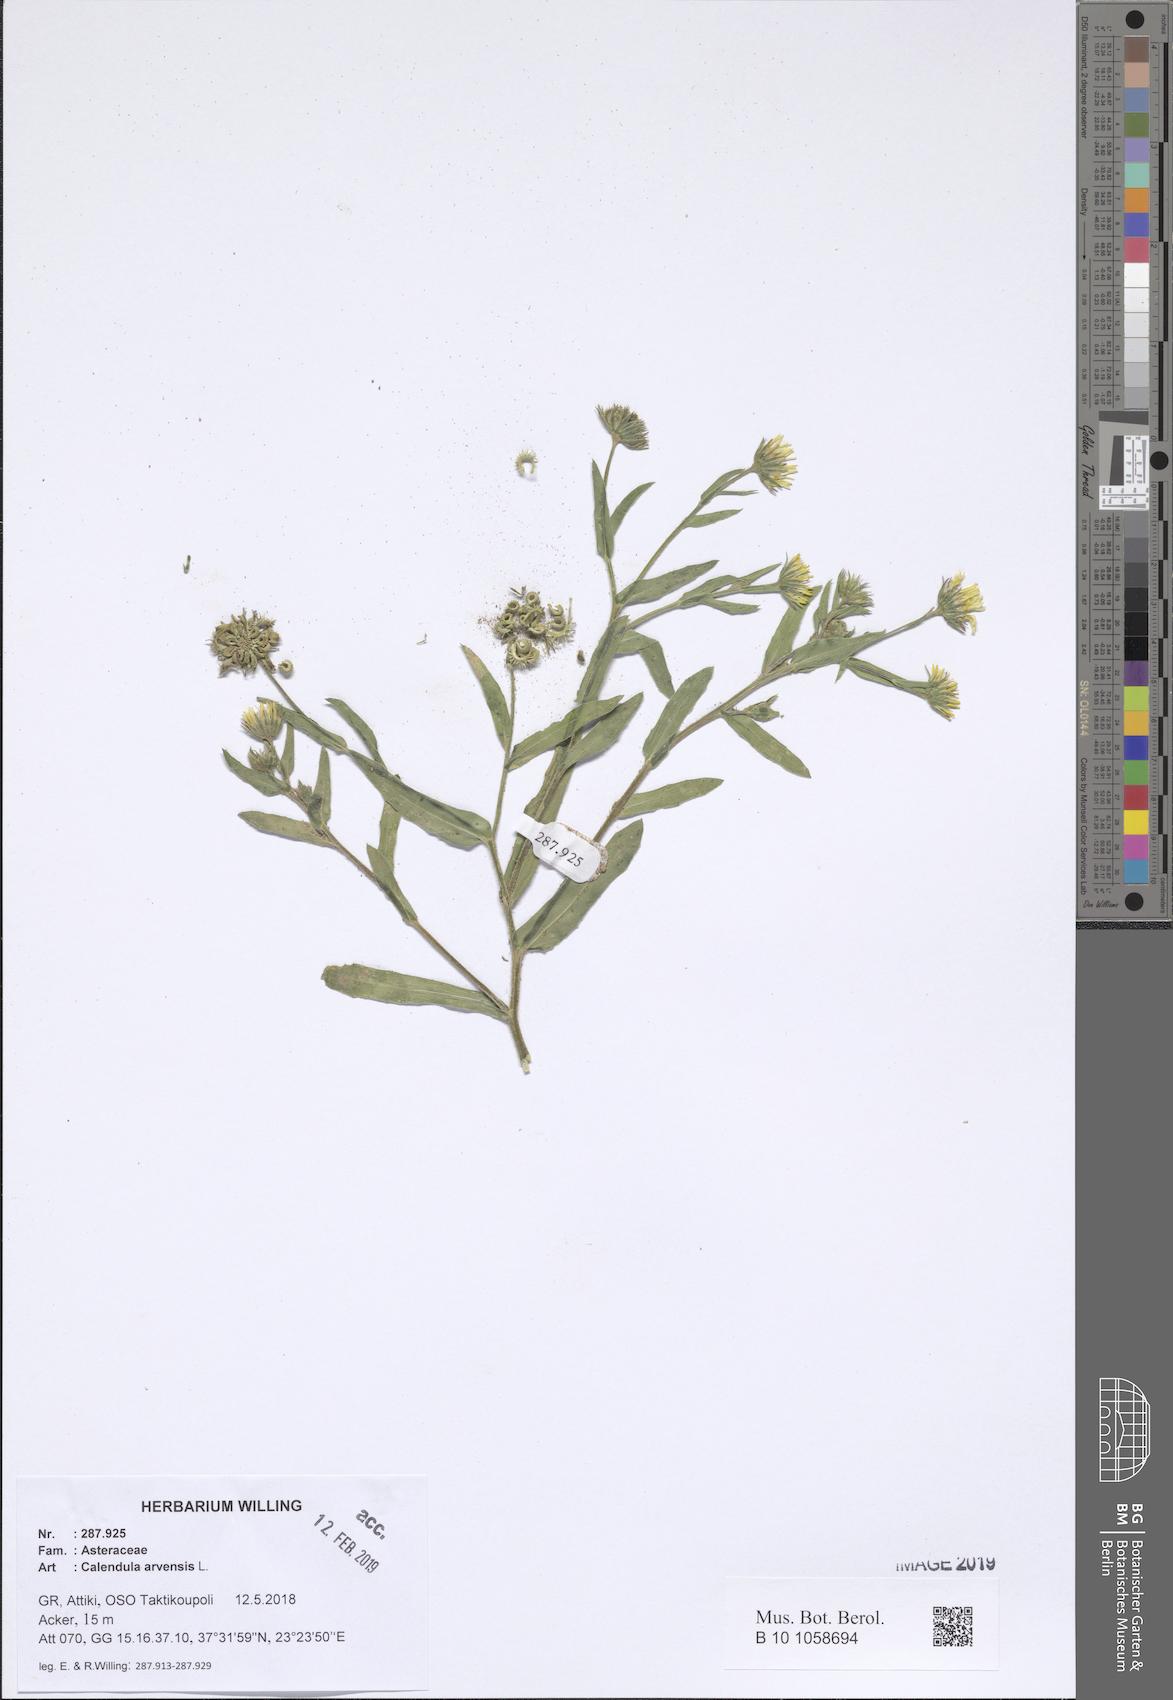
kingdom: Plantae
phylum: Tracheophyta
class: Magnoliopsida
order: Asterales
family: Asteraceae
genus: Calendula
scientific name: Calendula arvensis
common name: Field marigold
